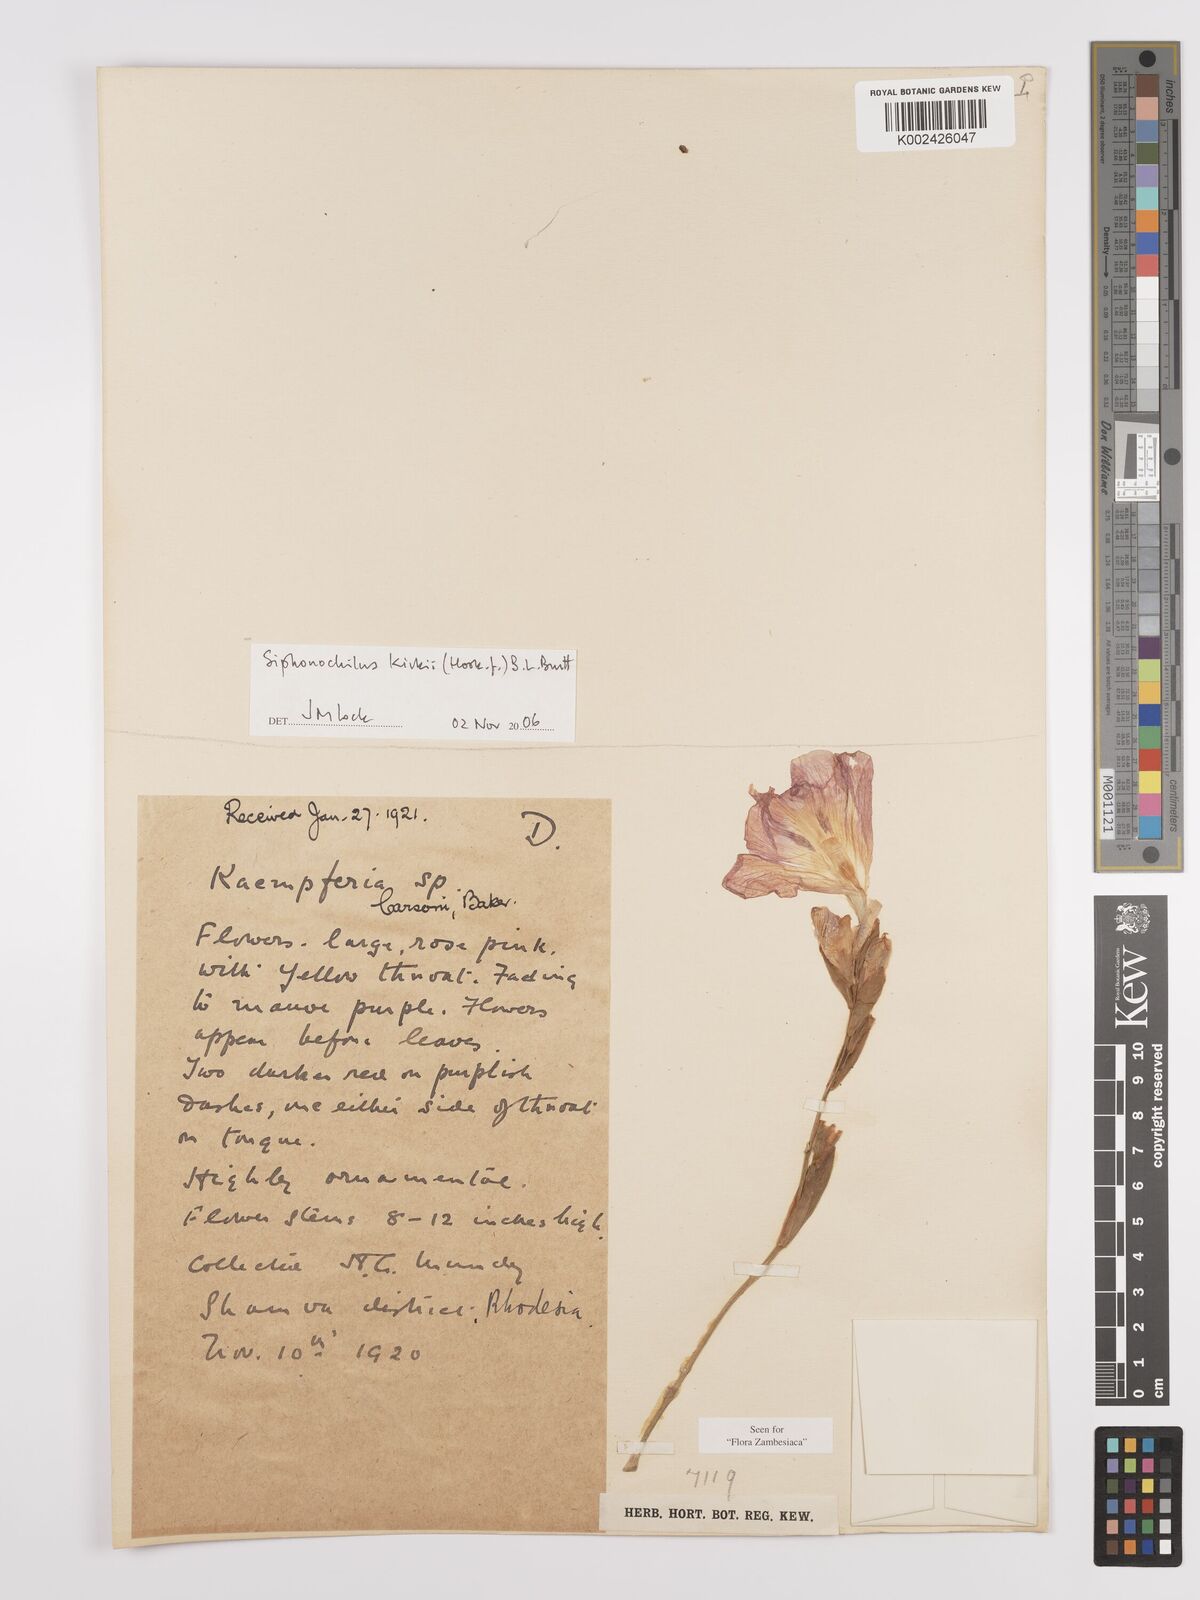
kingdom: Plantae
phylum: Tracheophyta
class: Liliopsida
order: Zingiberales
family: Zingiberaceae
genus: Siphonochilus
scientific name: Siphonochilus kirkii
